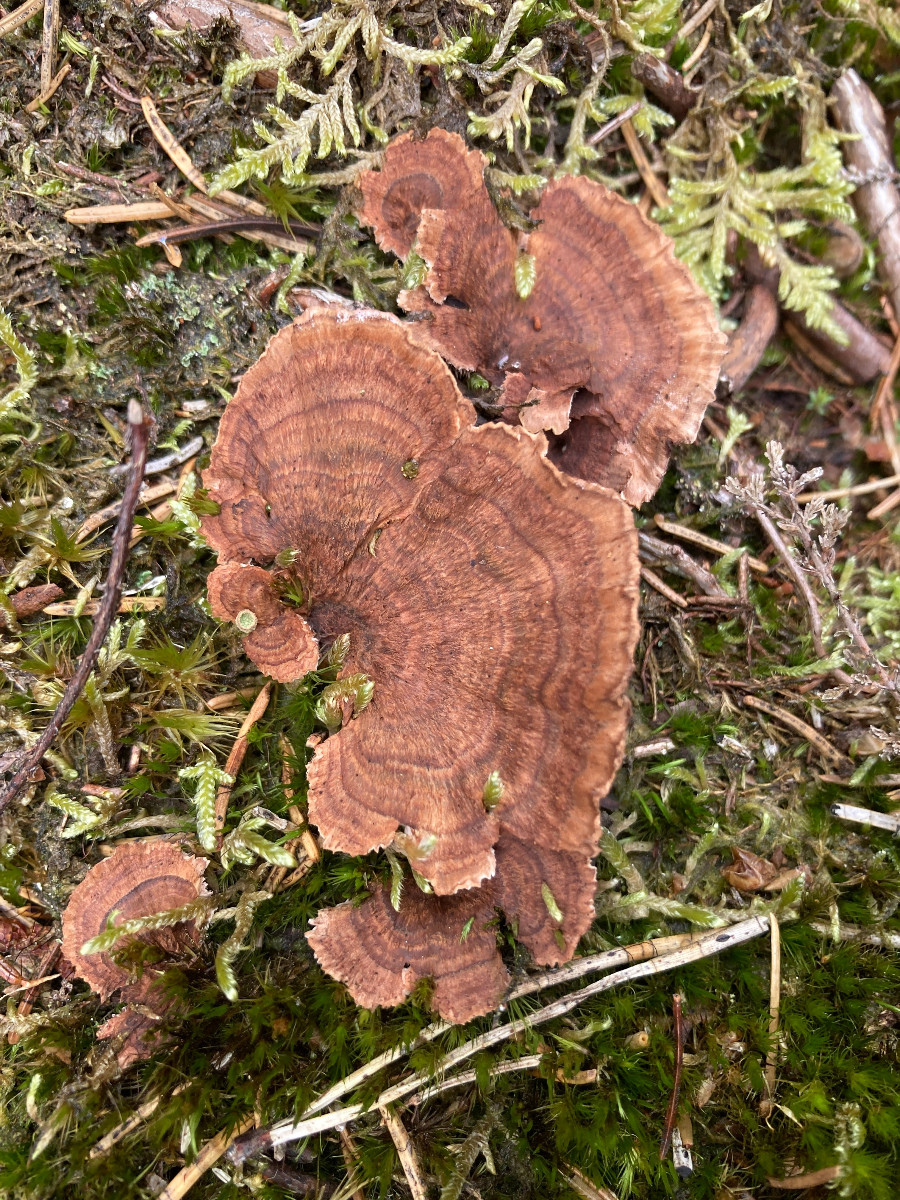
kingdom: Fungi
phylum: Basidiomycota
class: Agaricomycetes
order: Thelephorales
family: Bankeraceae
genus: Hydnellum
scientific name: Hydnellum concrescens
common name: Zoned tooth
